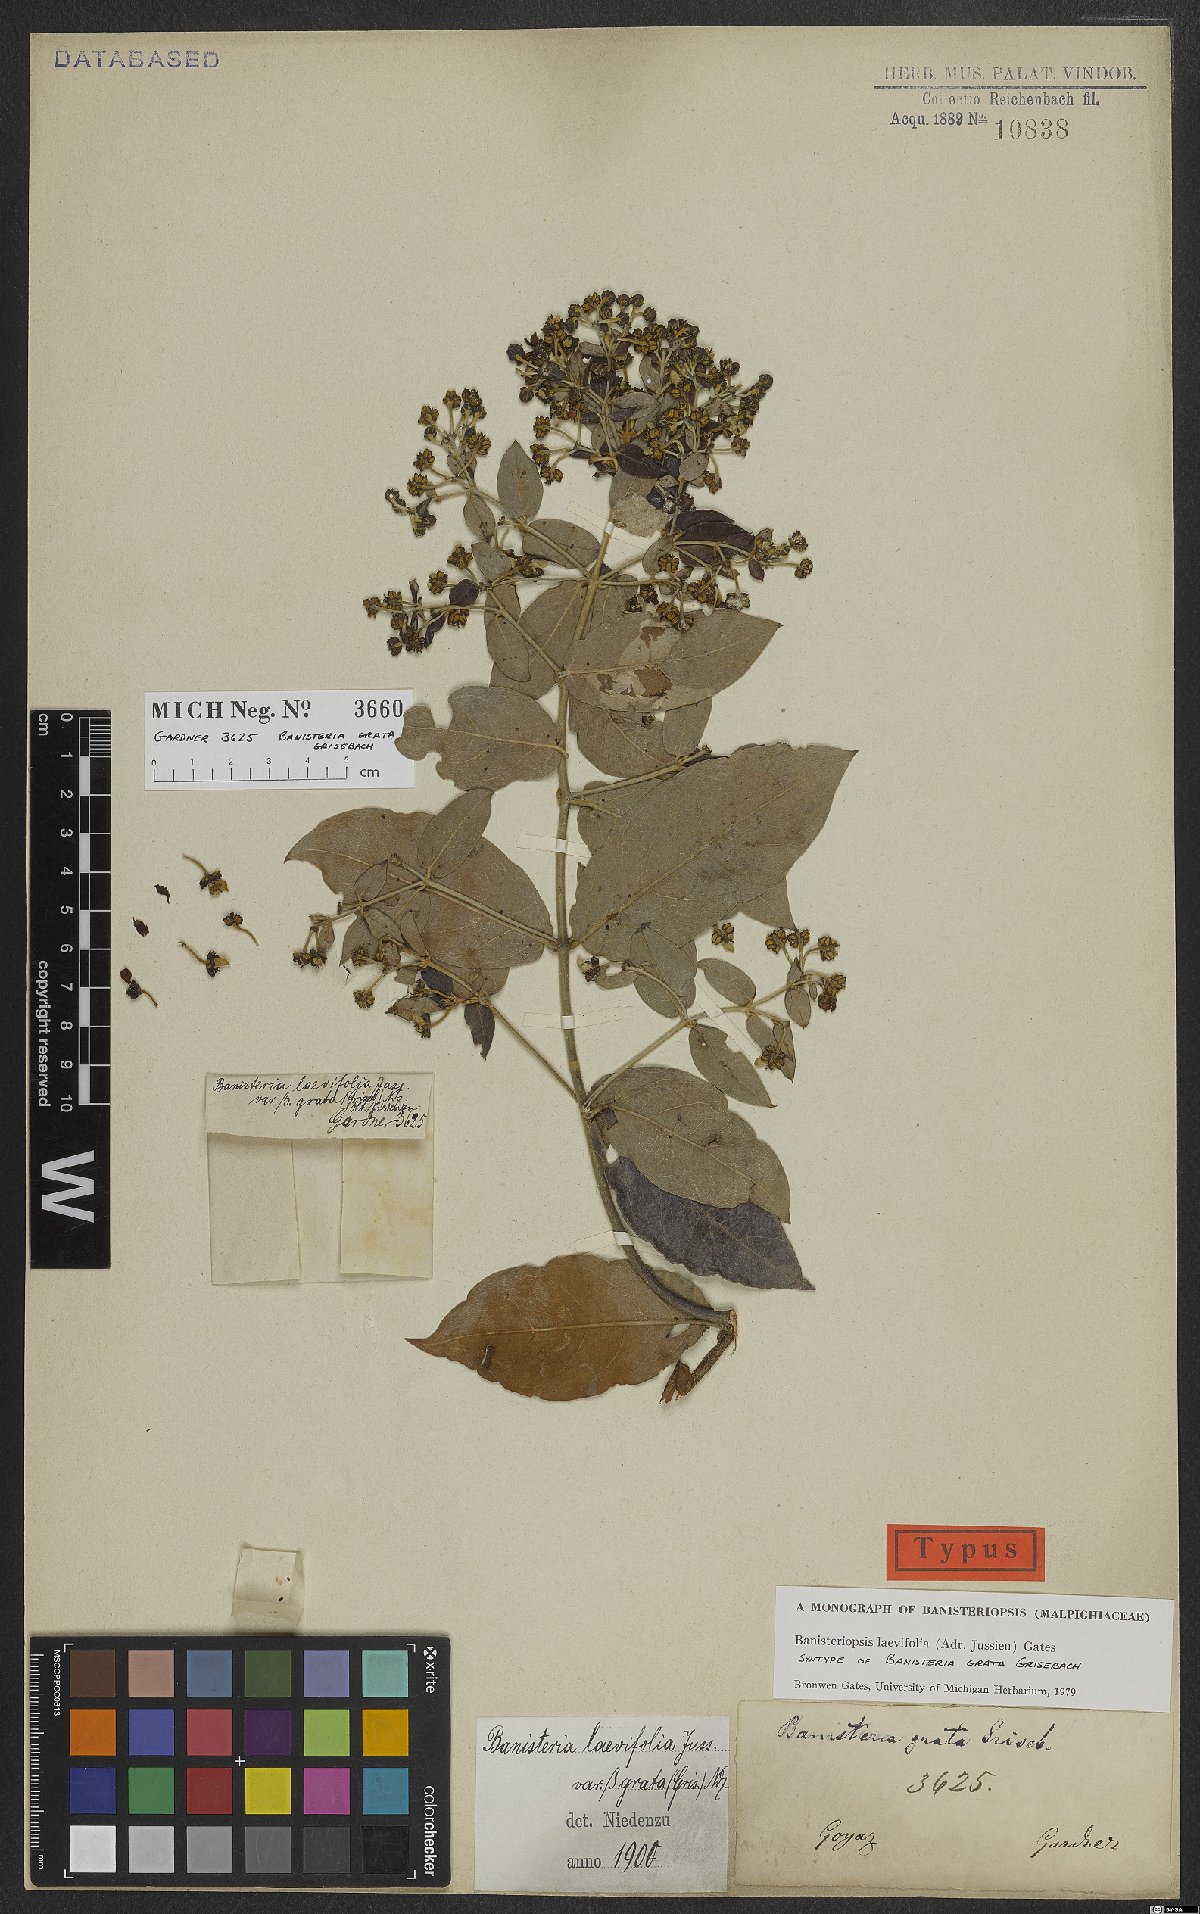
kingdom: Plantae
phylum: Tracheophyta
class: Magnoliopsida
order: Malpighiales
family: Malpighiaceae
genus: Banisteriopsis
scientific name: Banisteriopsis laevifolia
